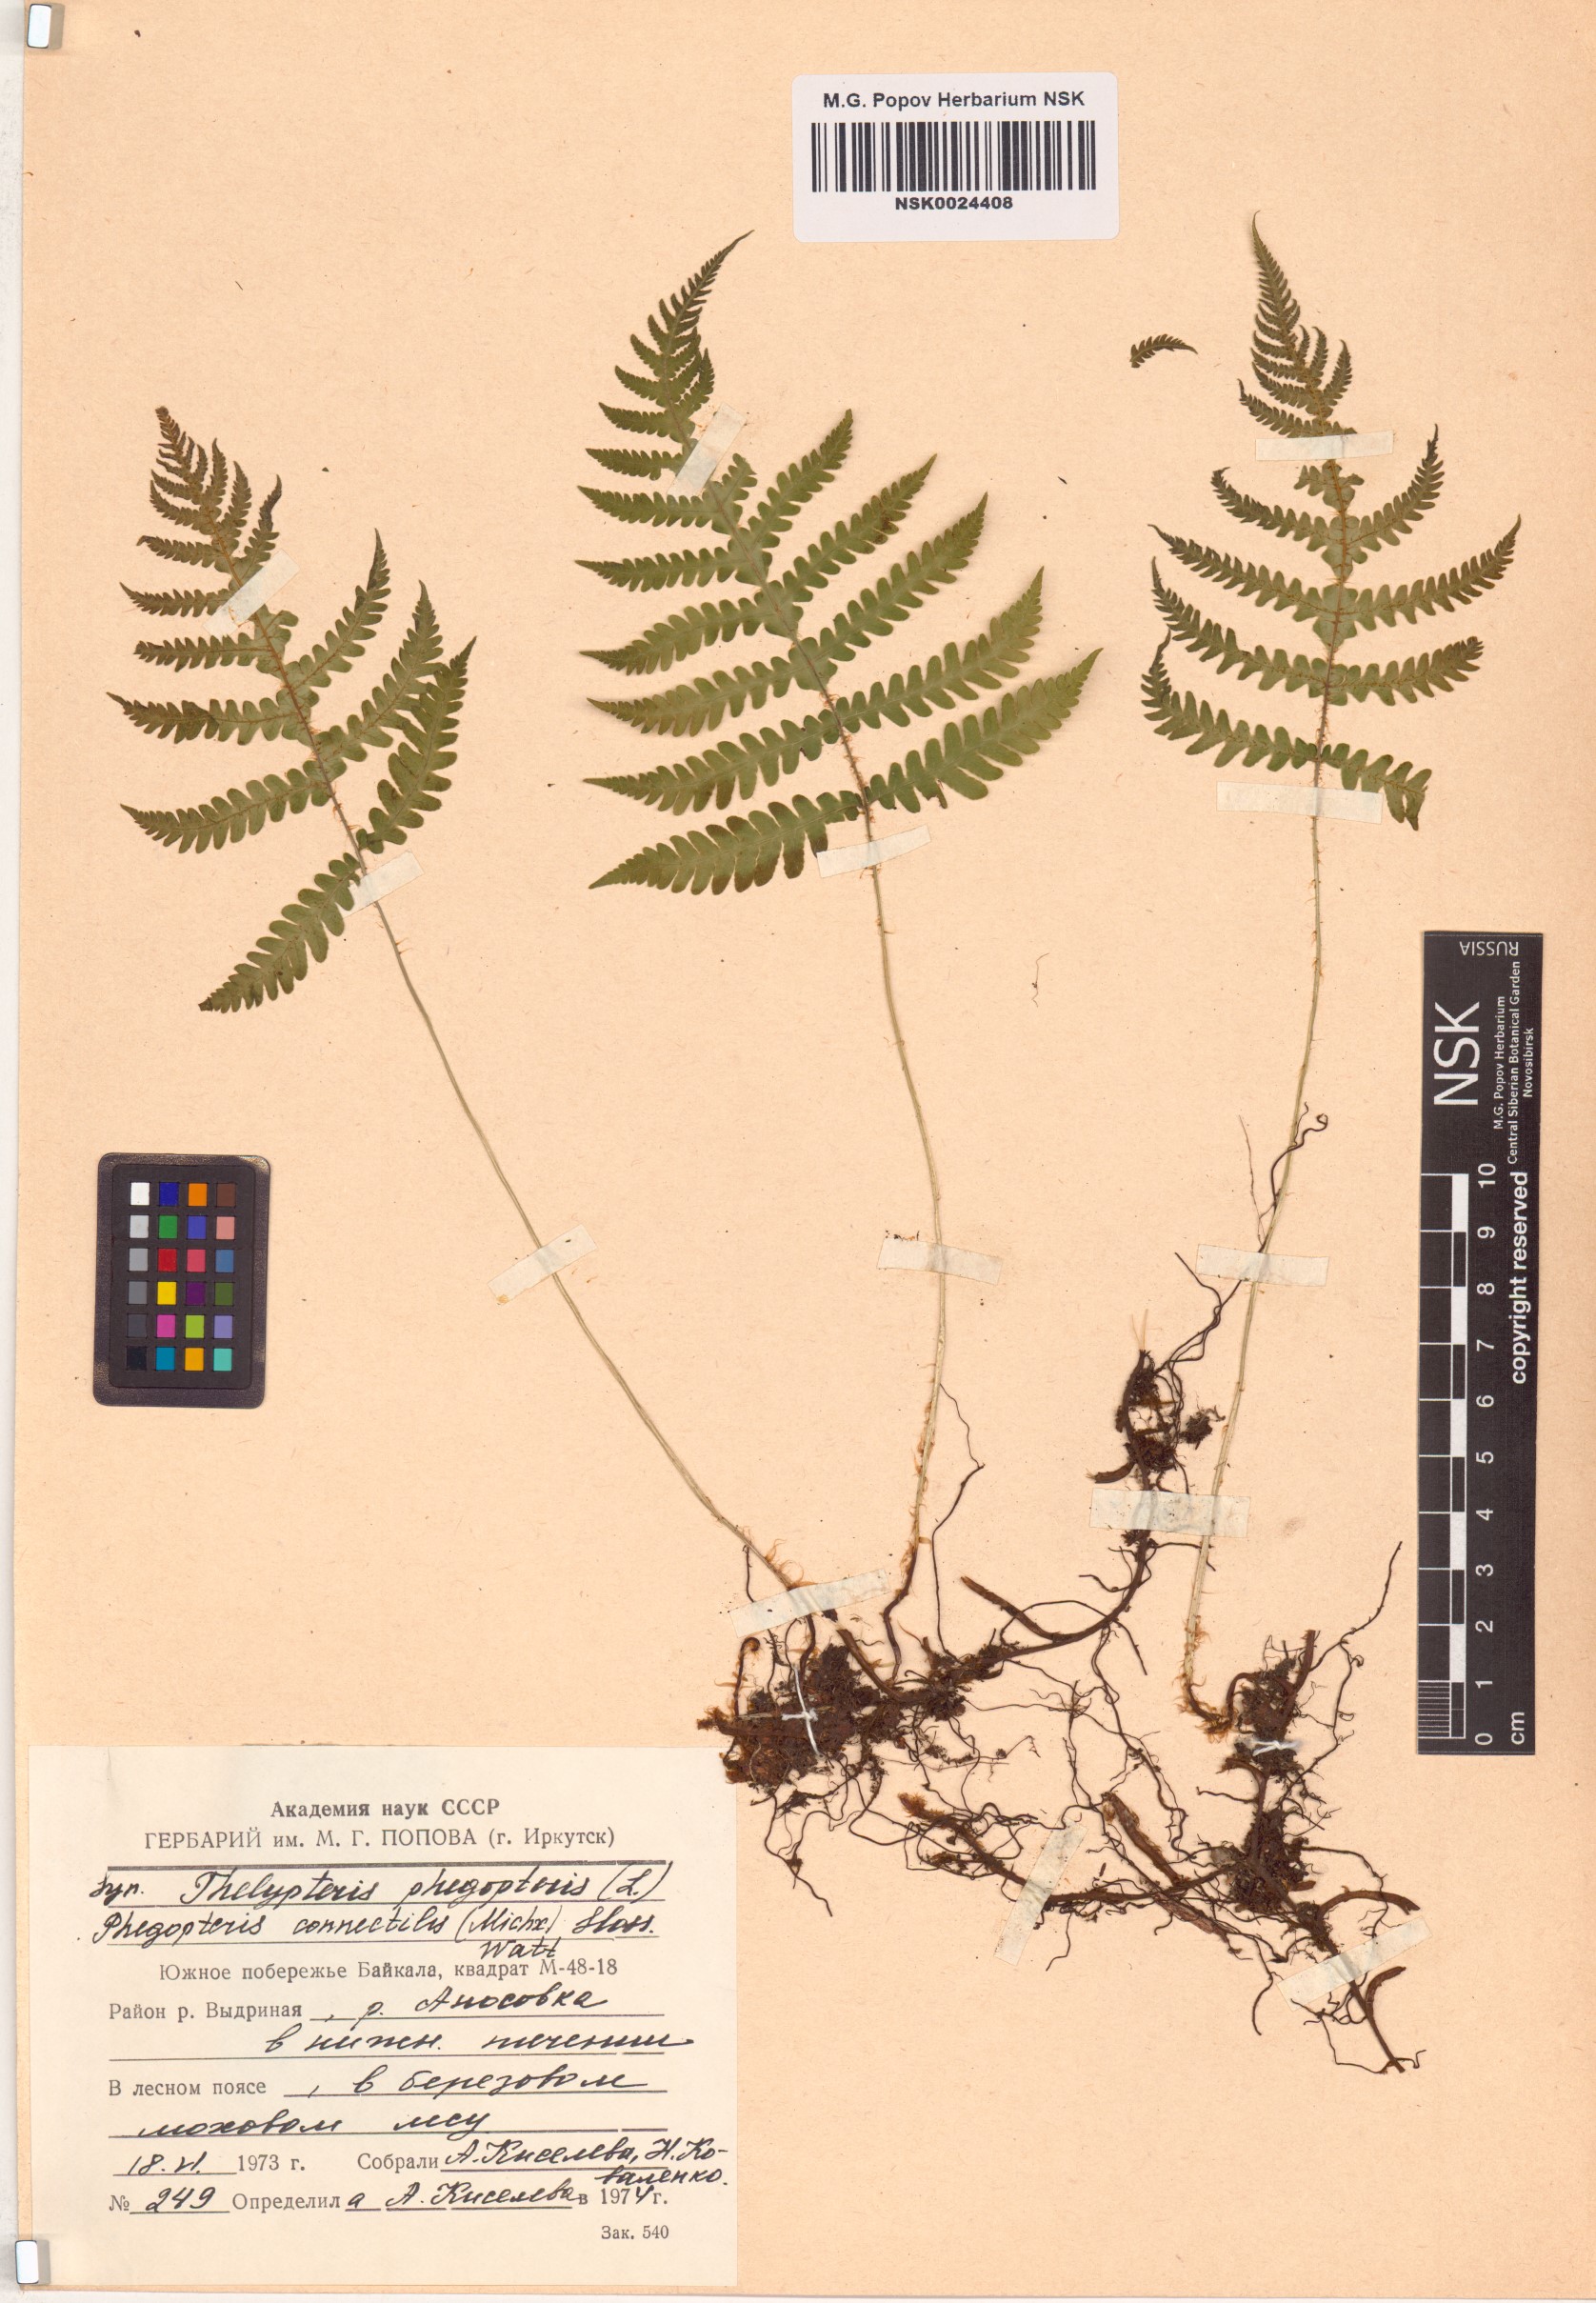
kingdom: Plantae
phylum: Tracheophyta
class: Polypodiopsida
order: Polypodiales
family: Thelypteridaceae
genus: Phegopteris
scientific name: Phegopteris connectilis
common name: Beech fern
